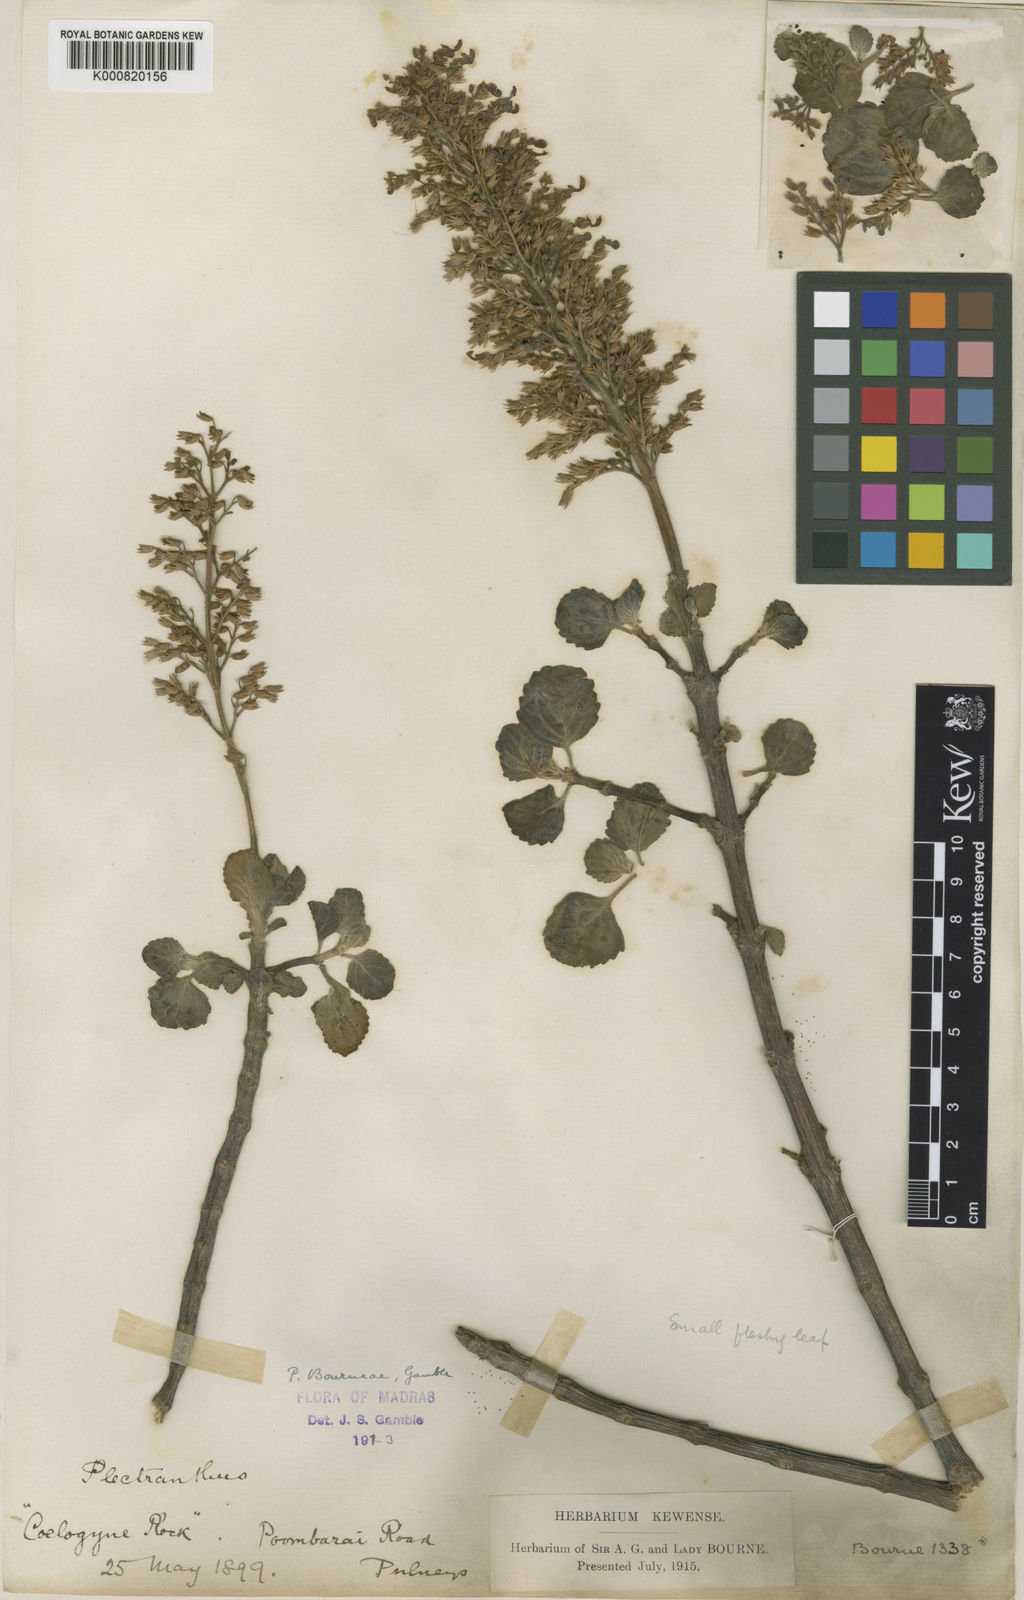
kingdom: Plantae
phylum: Tracheophyta
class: Magnoliopsida
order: Lamiales
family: Lamiaceae
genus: Coleus
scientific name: Coleus bourneae
